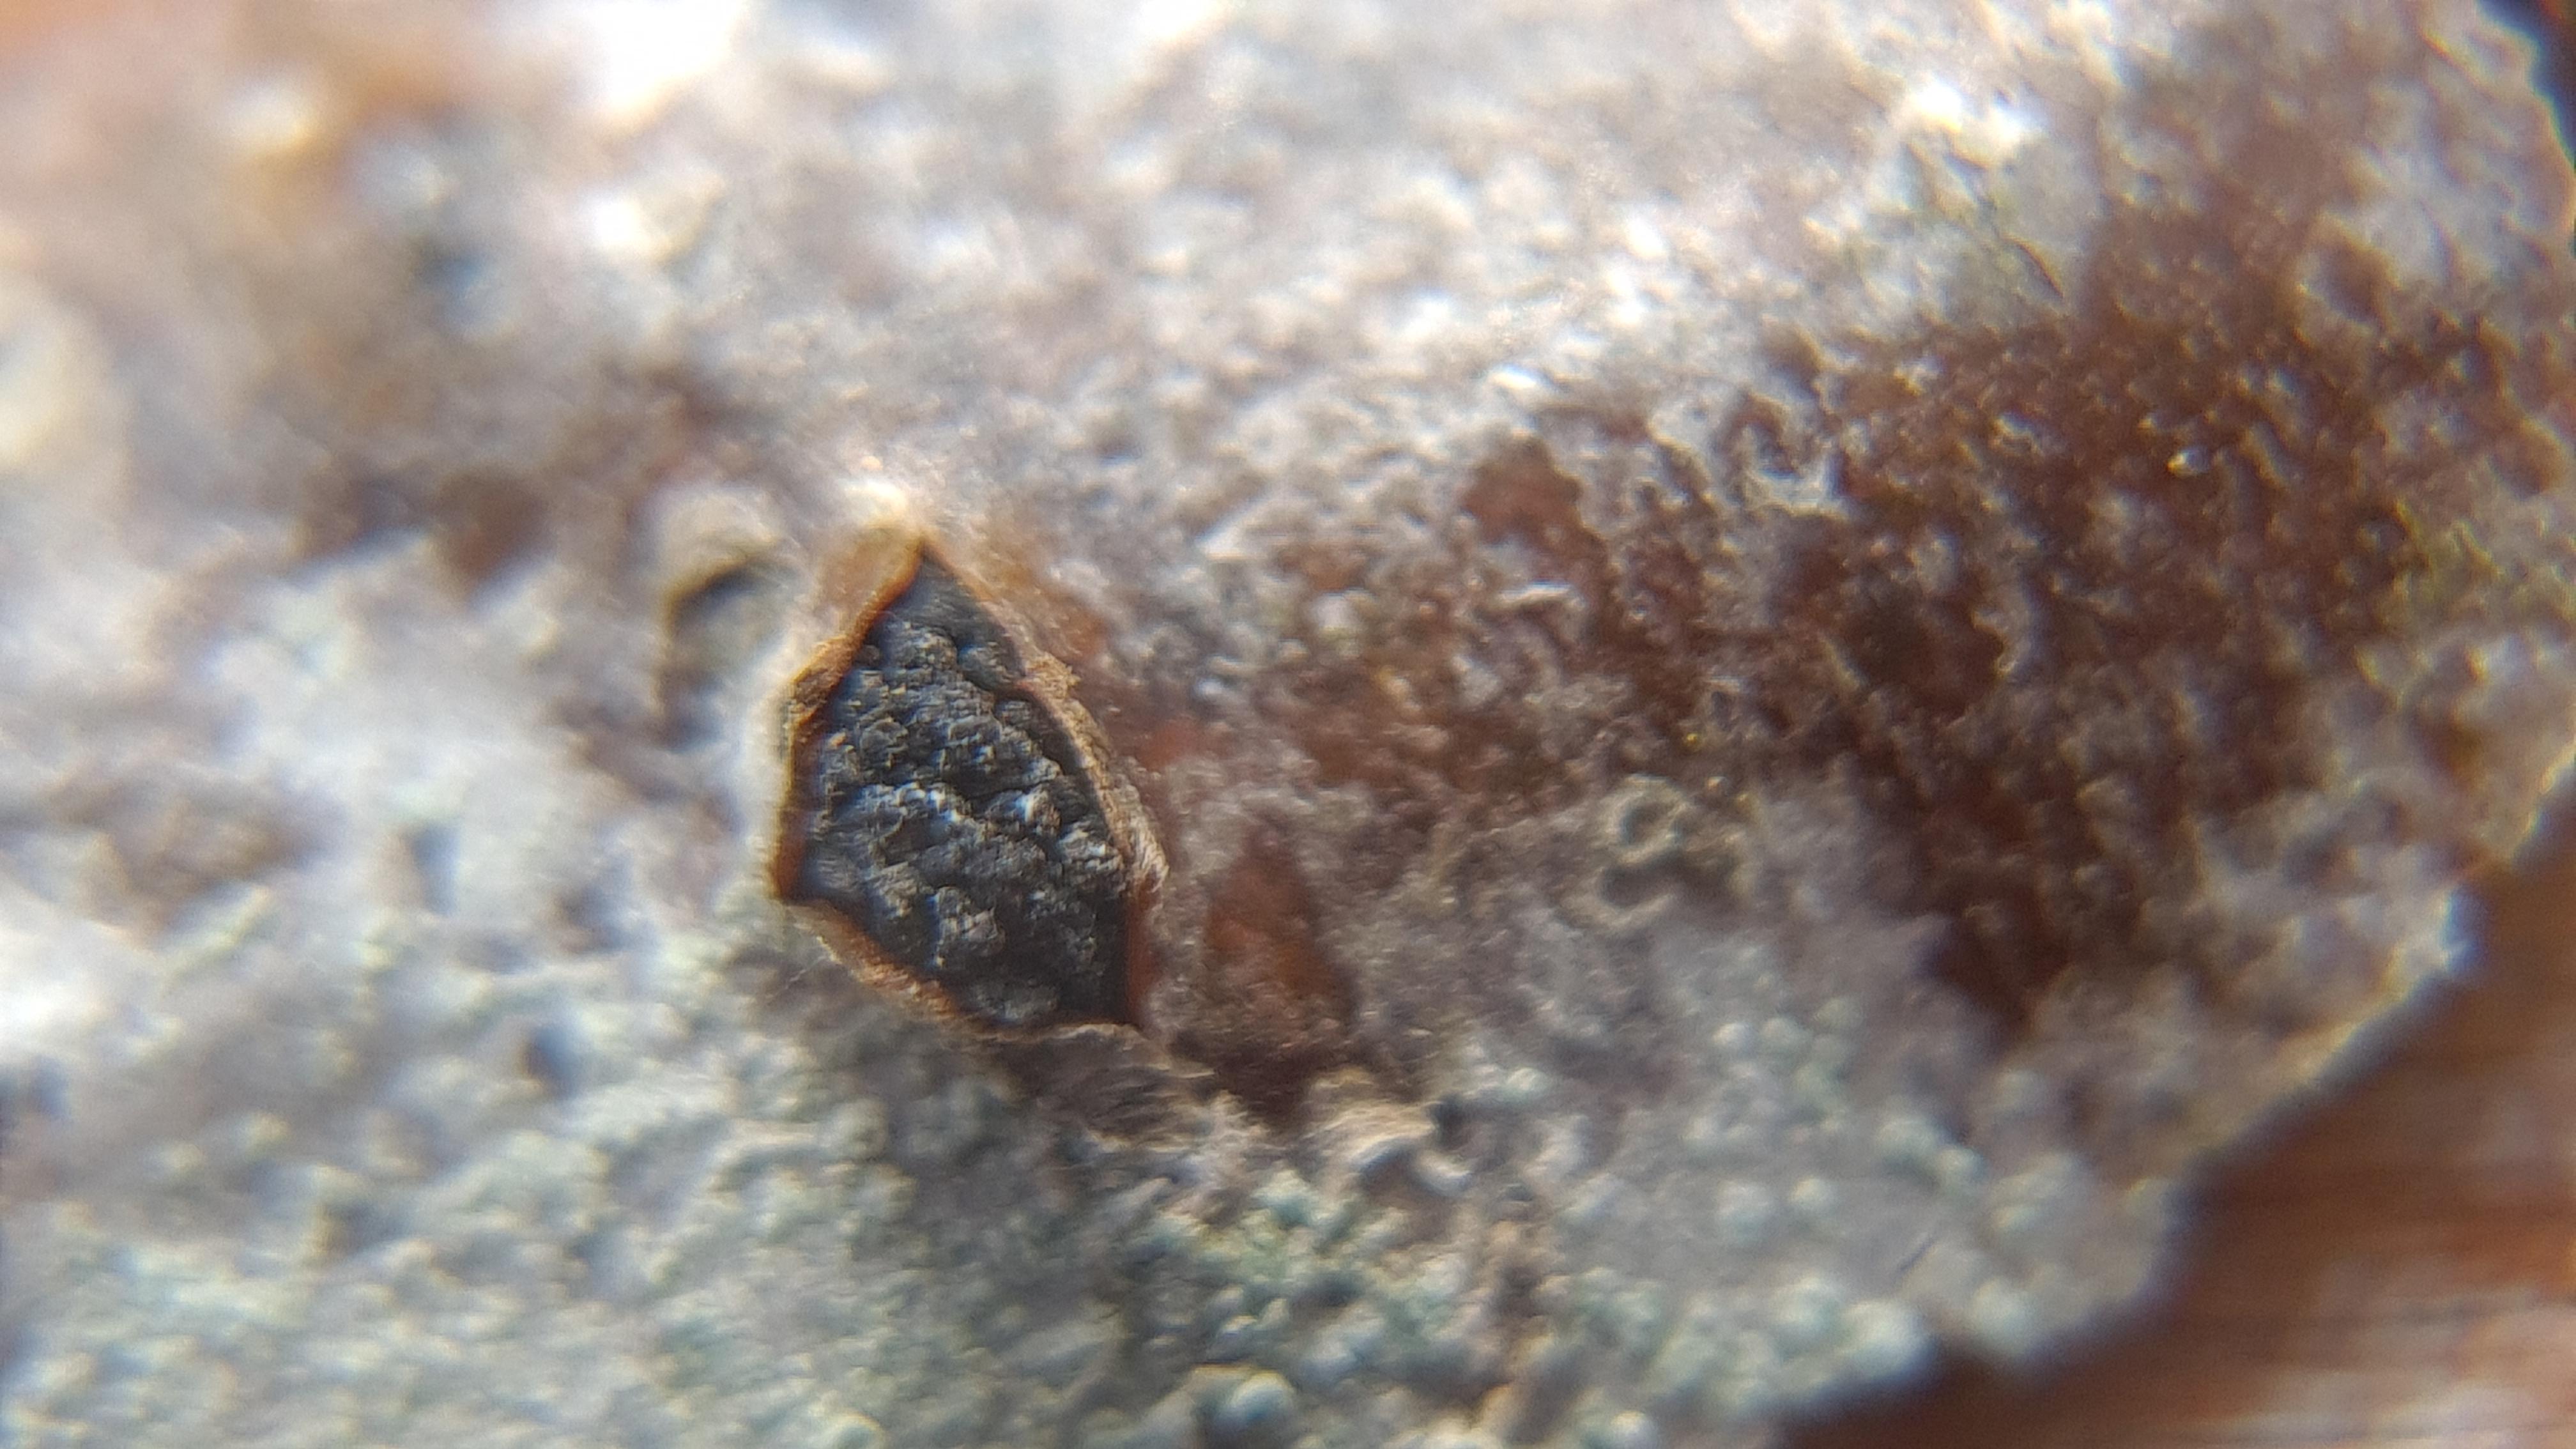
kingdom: Fungi
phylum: Ascomycota
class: Sordariomycetes
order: Xylariales
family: Diatrypaceae
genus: Eutypella
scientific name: Eutypella sorbi
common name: rønne-kulskorpe
